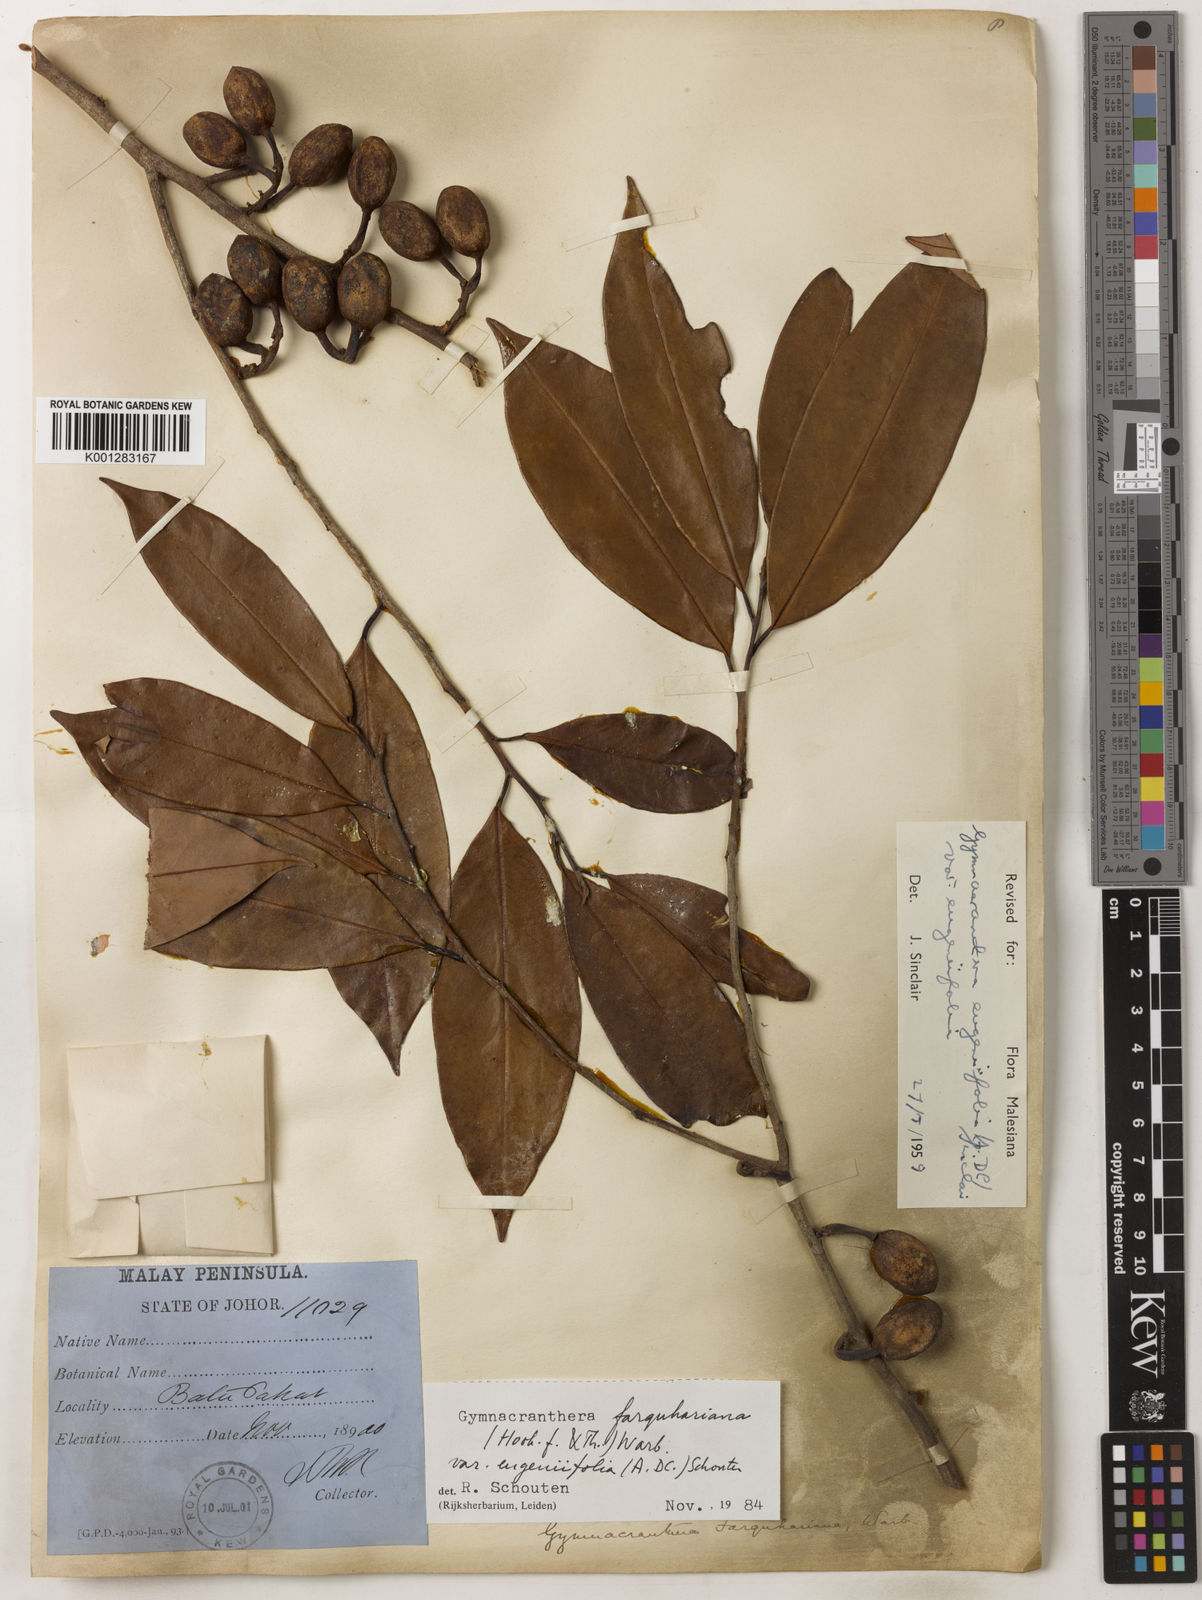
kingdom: Plantae
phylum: Tracheophyta
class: Magnoliopsida
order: Magnoliales
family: Myristicaceae
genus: Gymnacranthera
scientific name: Gymnacranthera farquhariana
